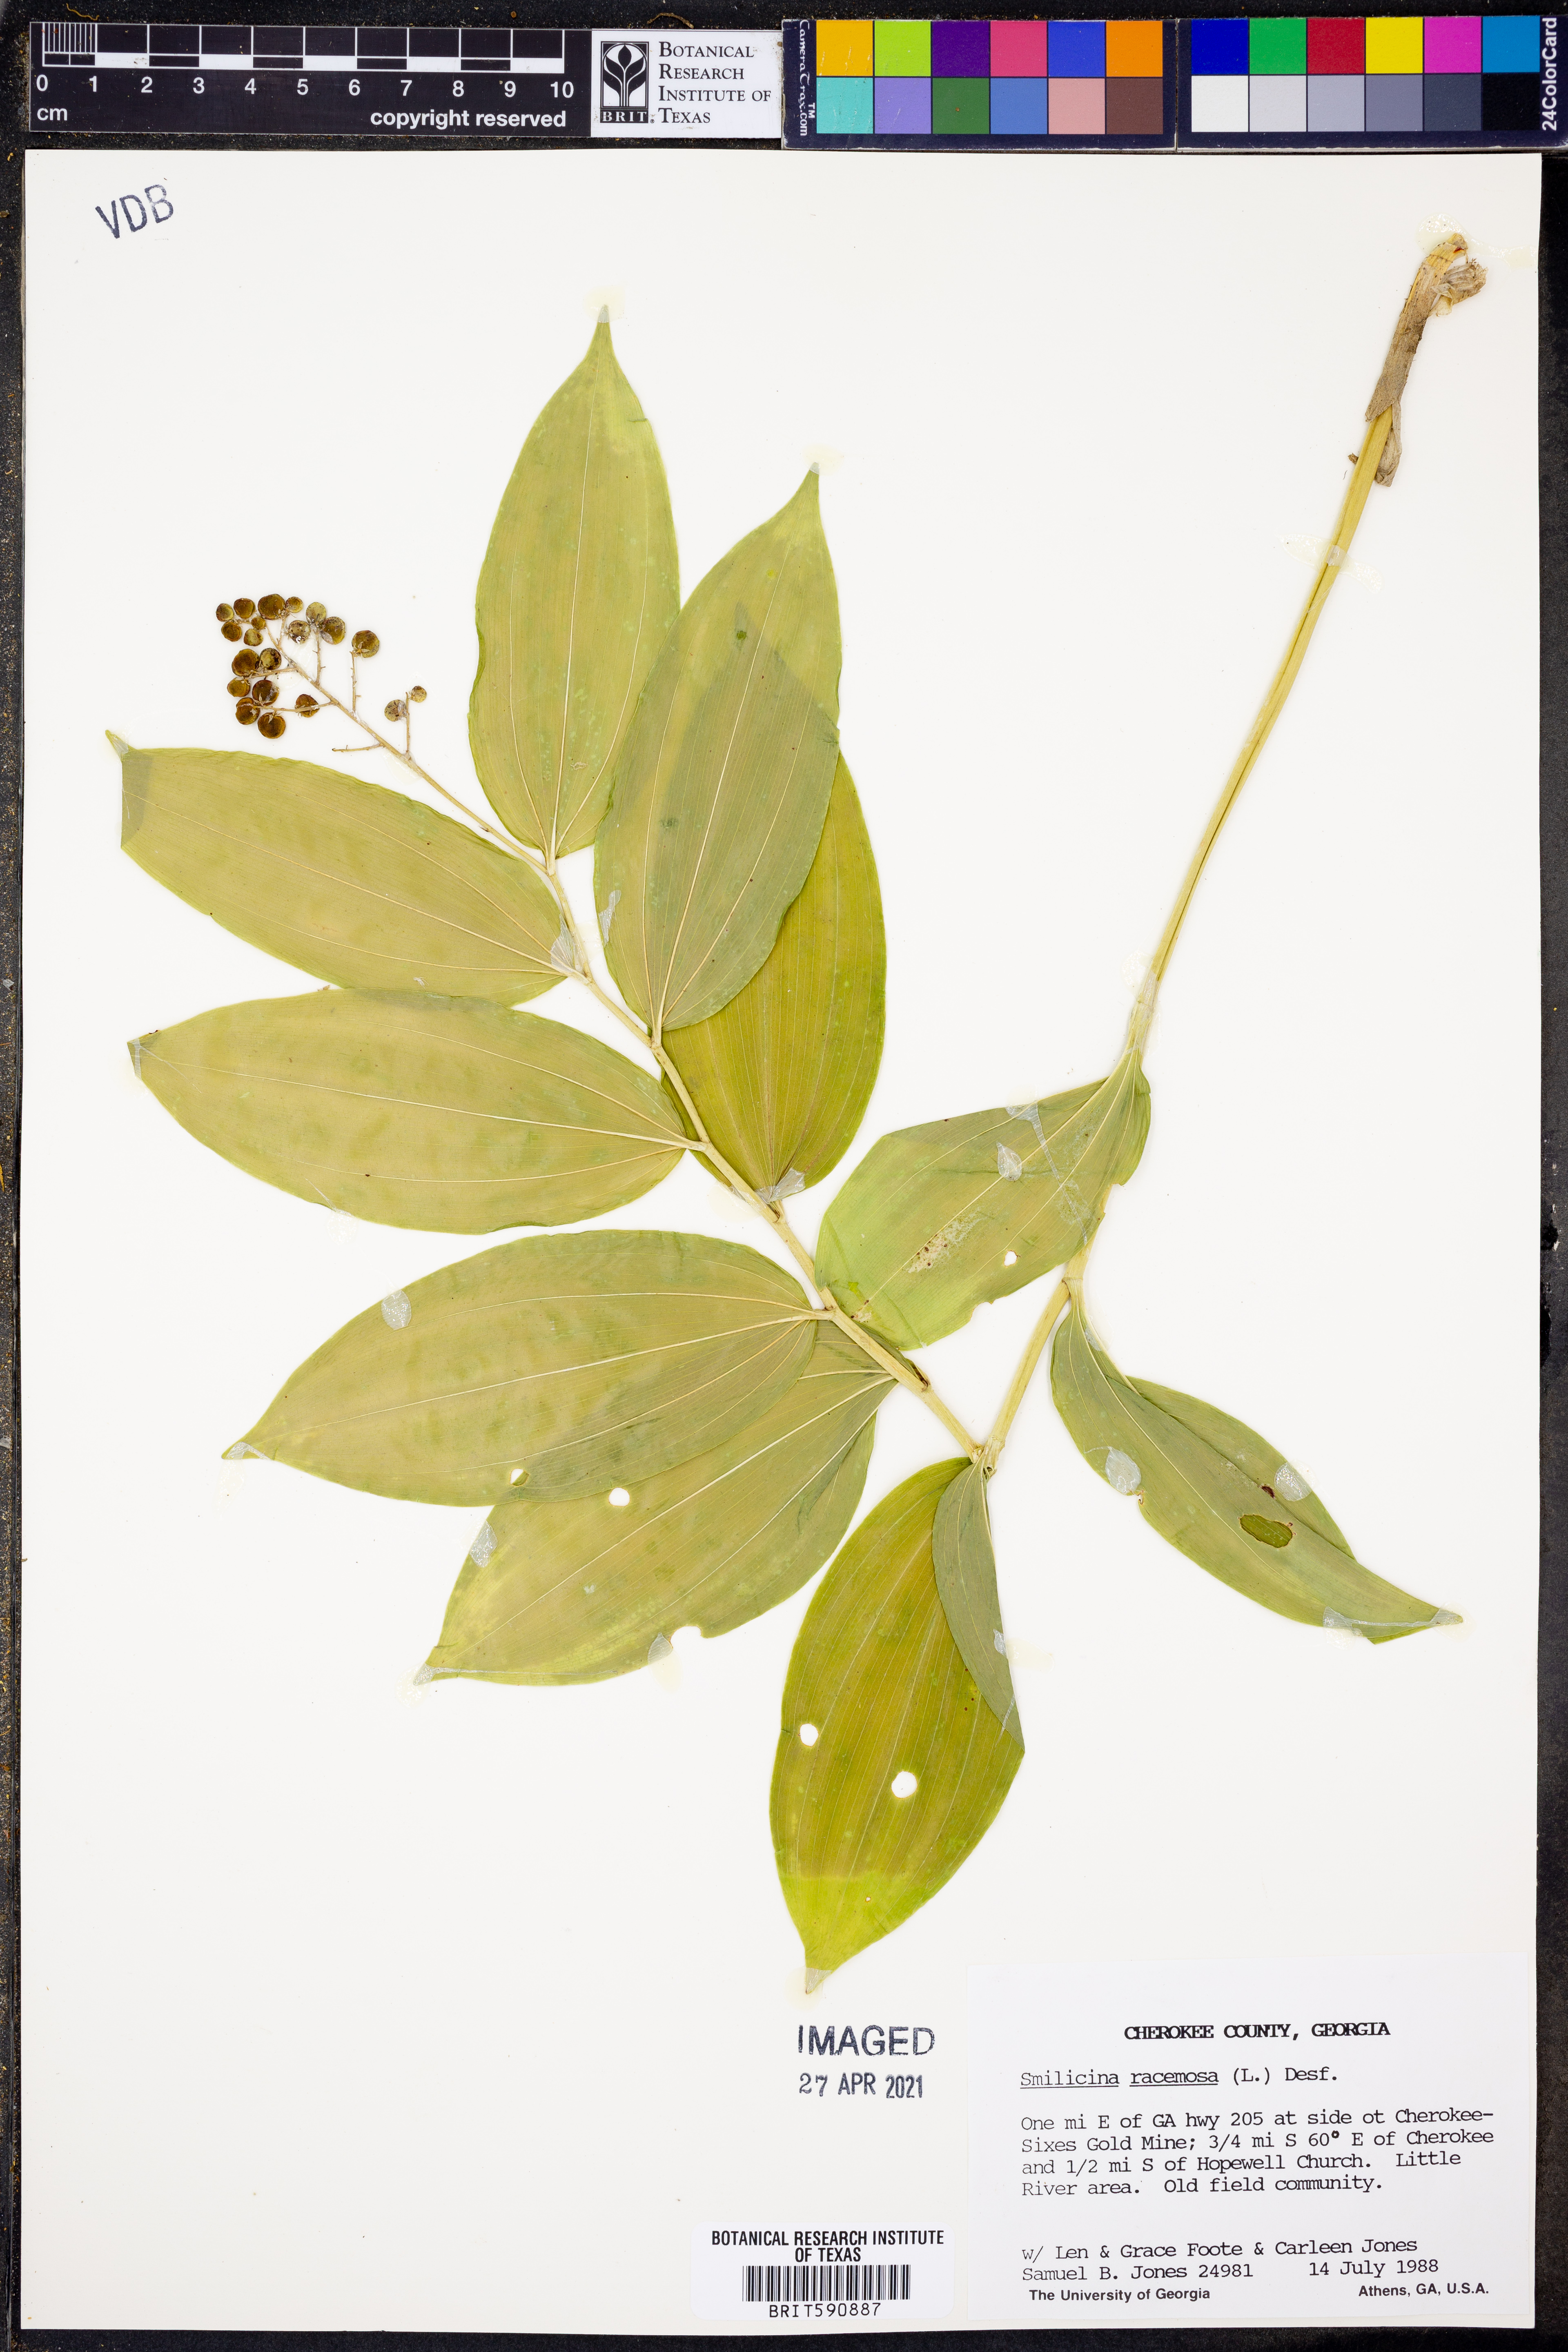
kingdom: Plantae
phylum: Tracheophyta
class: Liliopsida
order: Asparagales
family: Asparagaceae
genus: Maianthemum
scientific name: Maianthemum racemosum
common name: False spikenard
